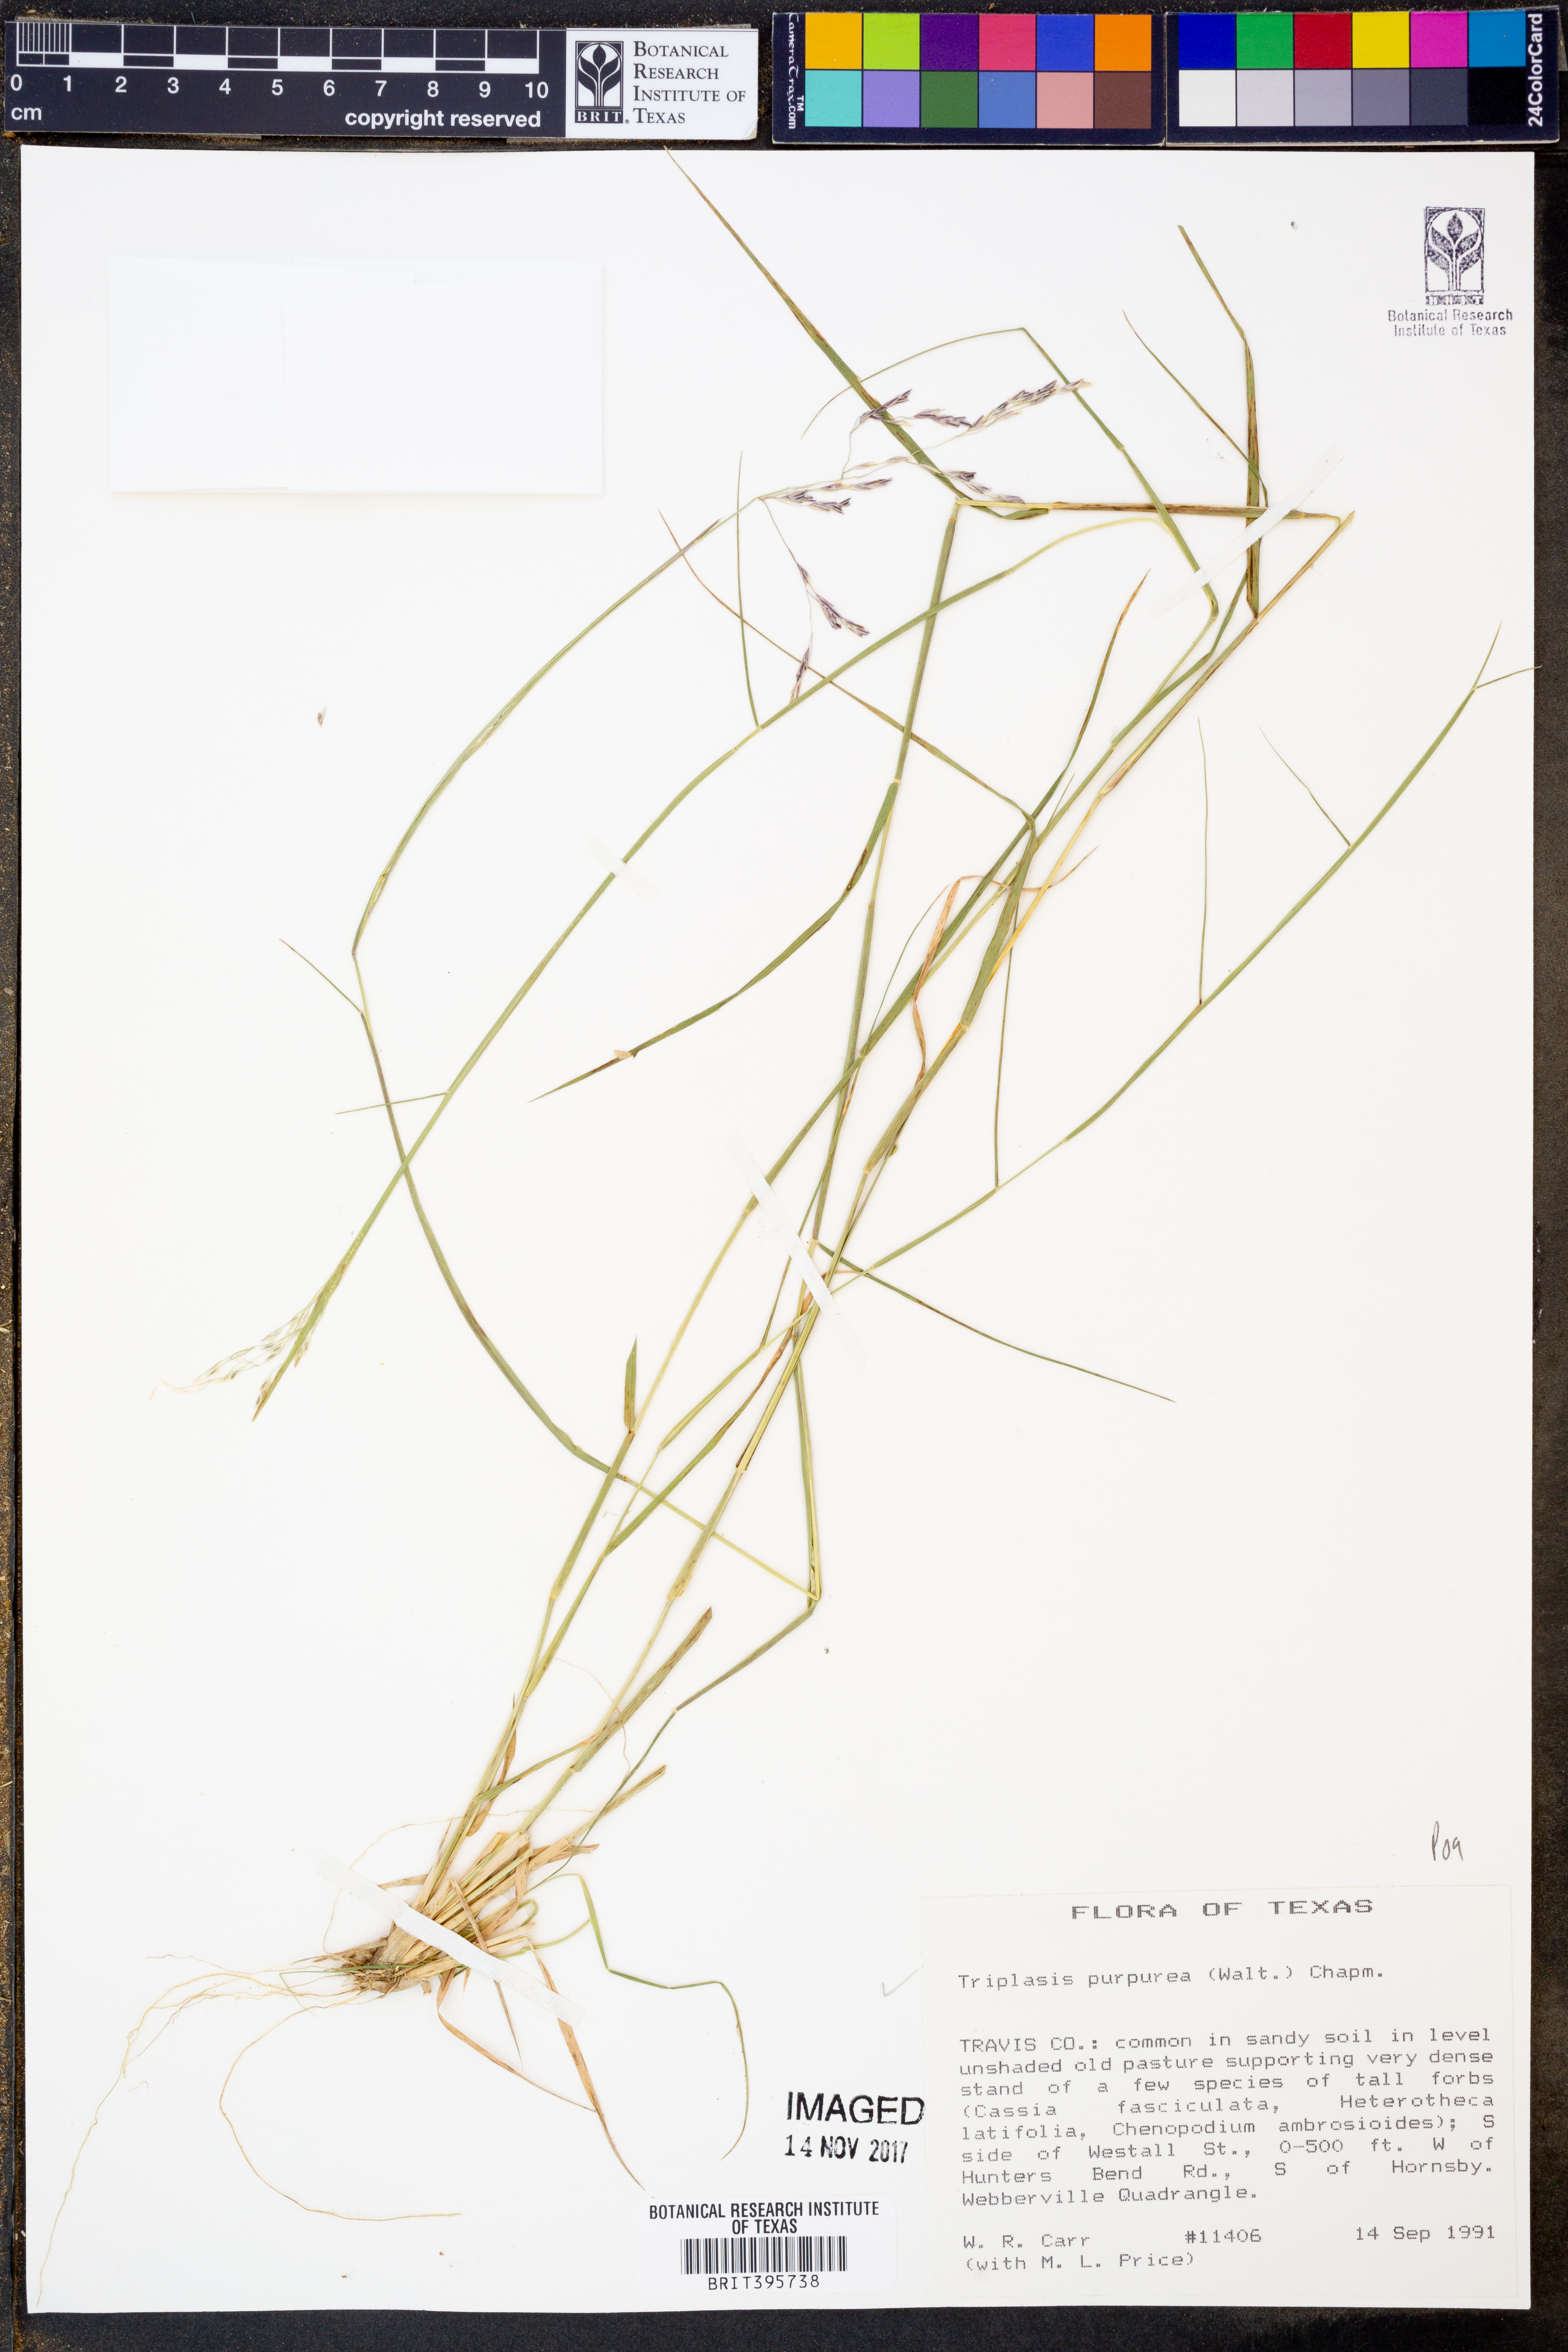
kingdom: Plantae
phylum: Tracheophyta
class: Liliopsida
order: Poales
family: Poaceae
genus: Triplasis
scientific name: Triplasis purpurea
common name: Purple sand grass
